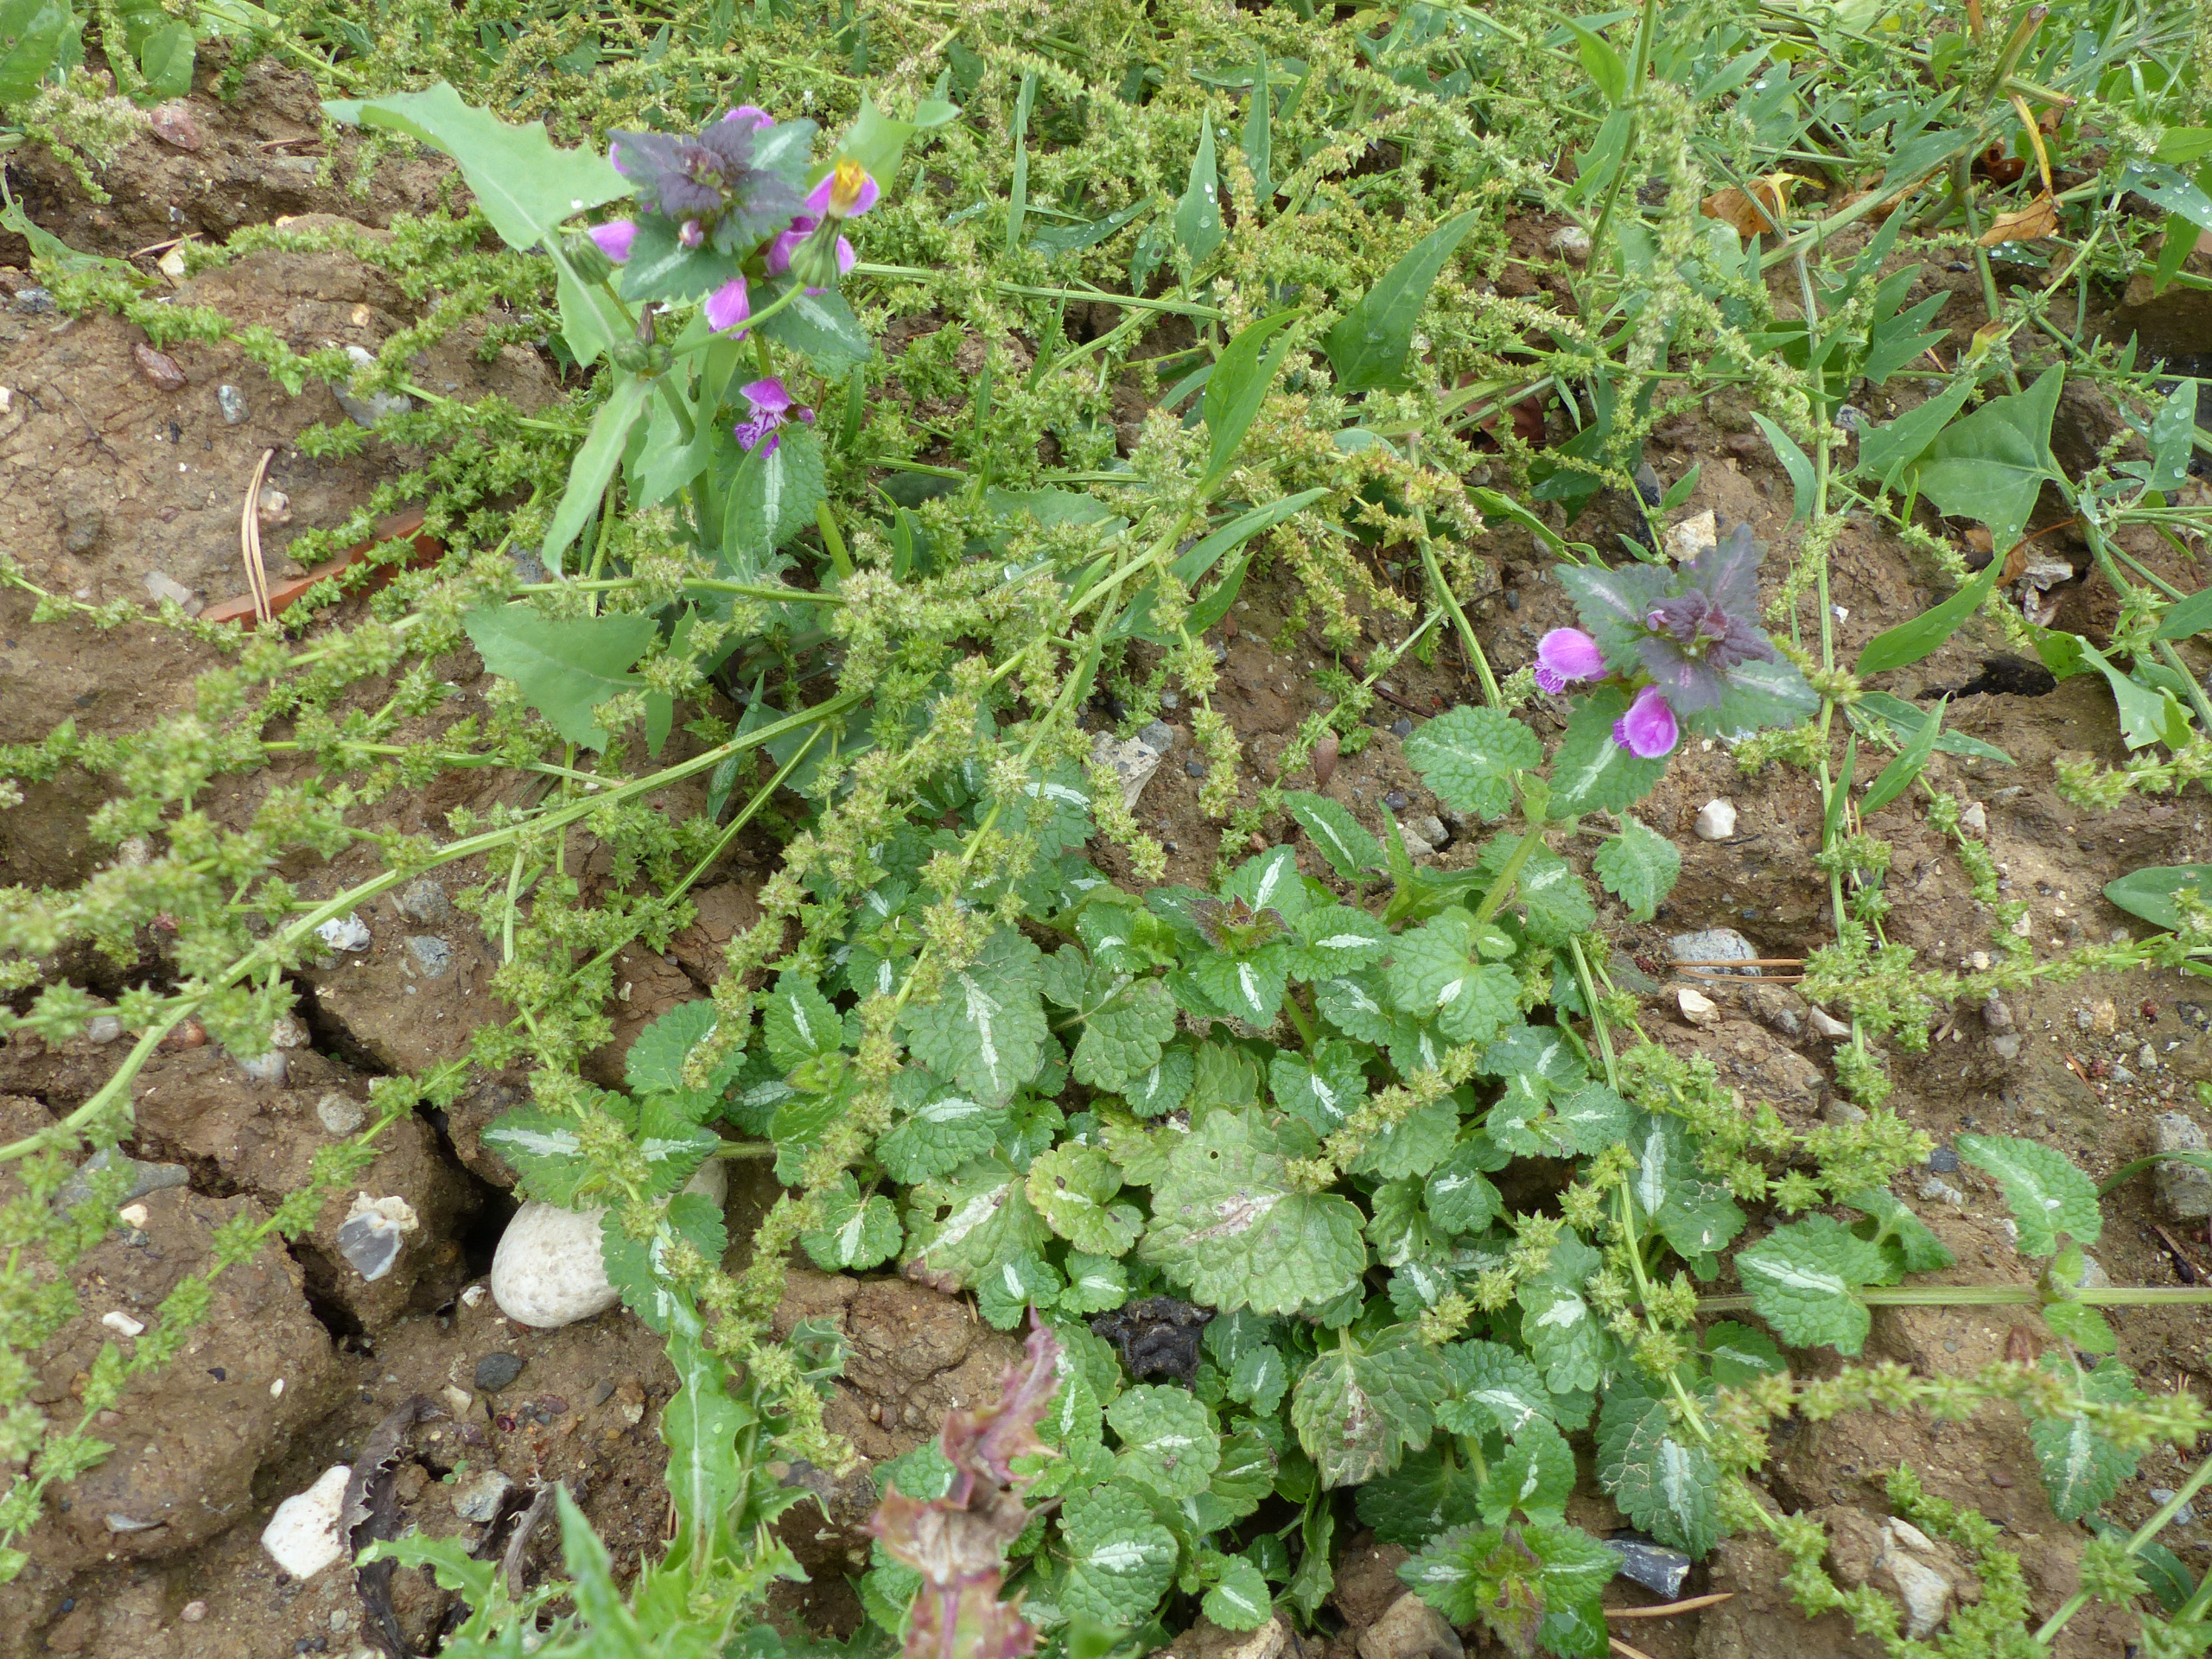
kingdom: Plantae
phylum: Tracheophyta
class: Magnoliopsida
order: Lamiales
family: Lamiaceae
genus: Lamium
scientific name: Lamium maculatum
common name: Plettet tvetand
